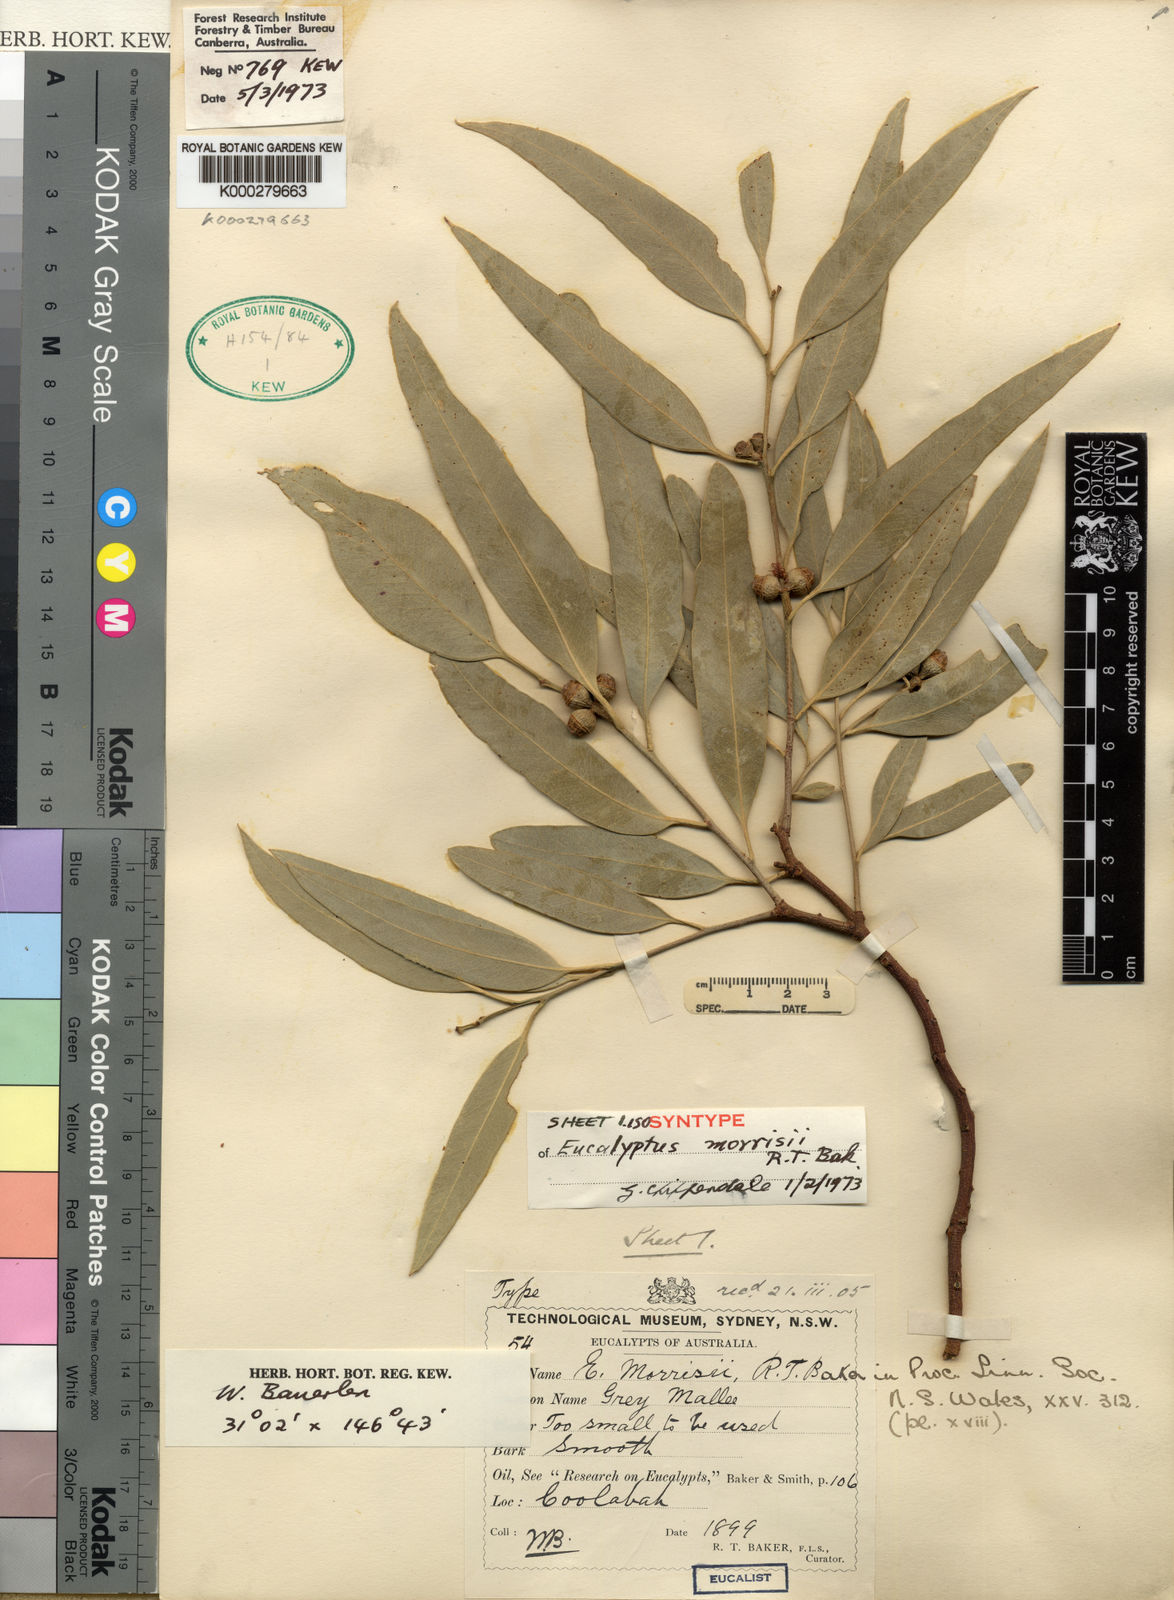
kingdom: Plantae
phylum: Tracheophyta
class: Magnoliopsida
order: Myrtales
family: Myrtaceae
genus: Eucalyptus
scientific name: Eucalyptus morrisii
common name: Grey mallee
